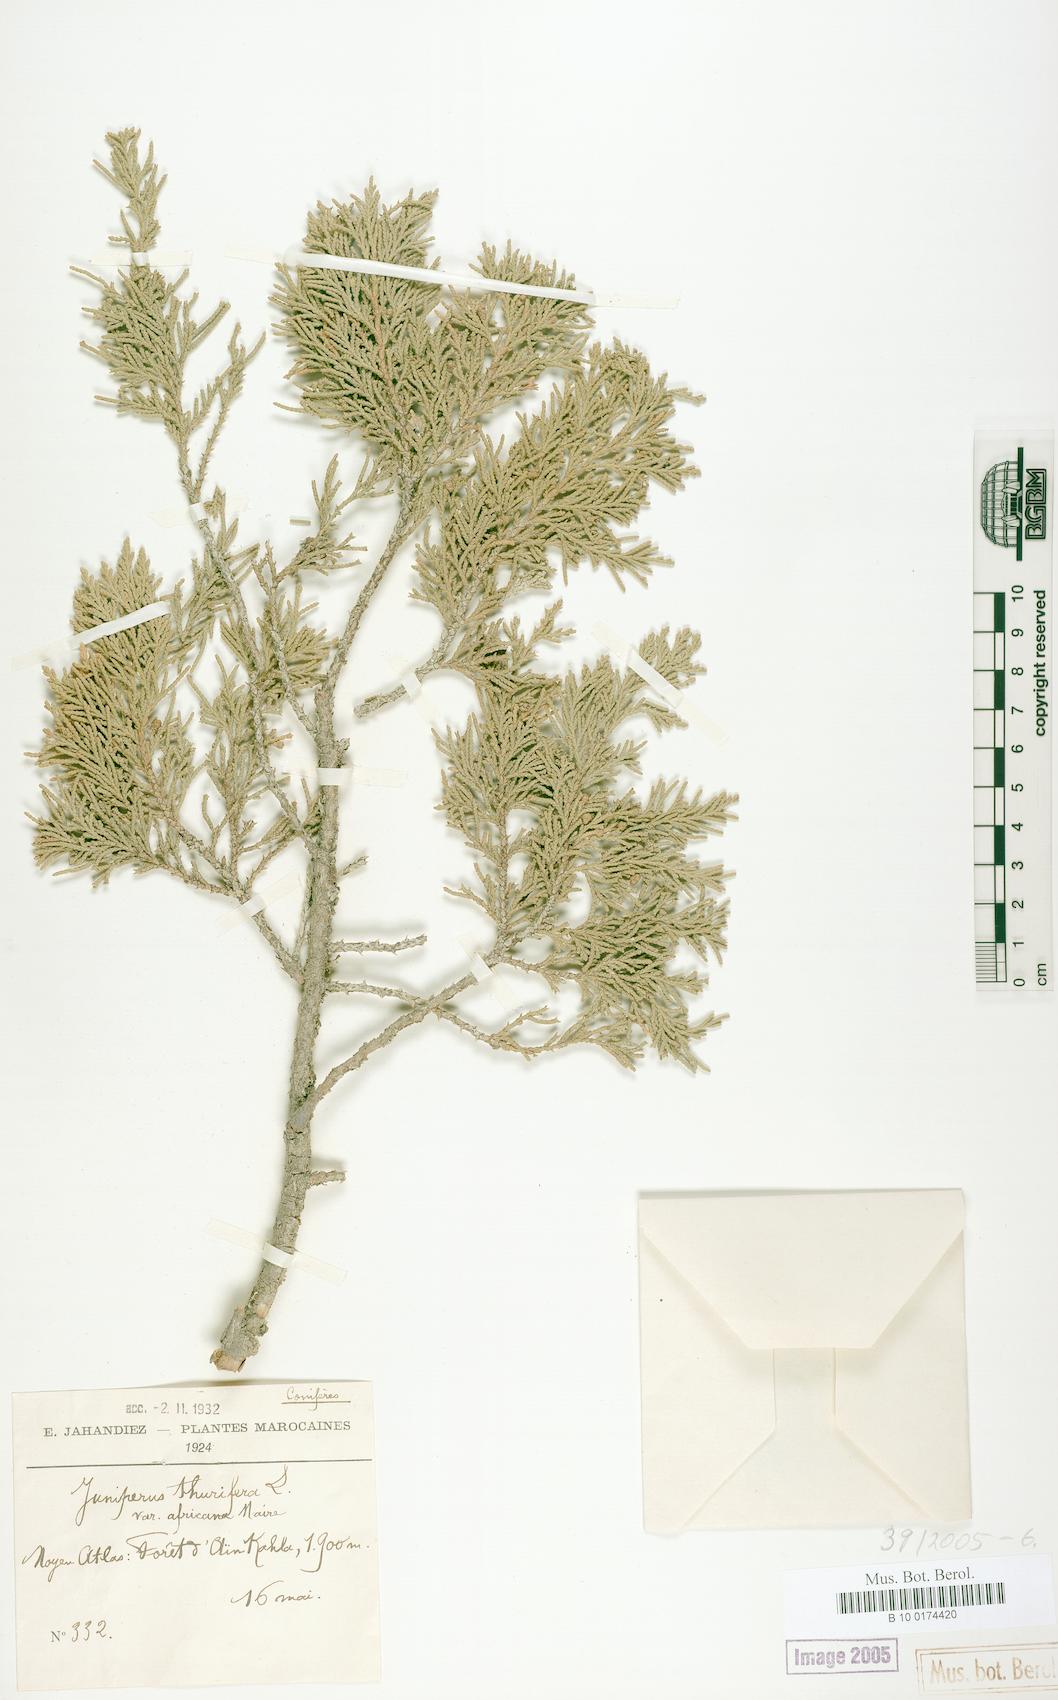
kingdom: Plantae
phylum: Tracheophyta
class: Pinopsida
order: Pinales
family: Cupressaceae
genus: Juniperus
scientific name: Juniperus thurifera
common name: Incense juniper
